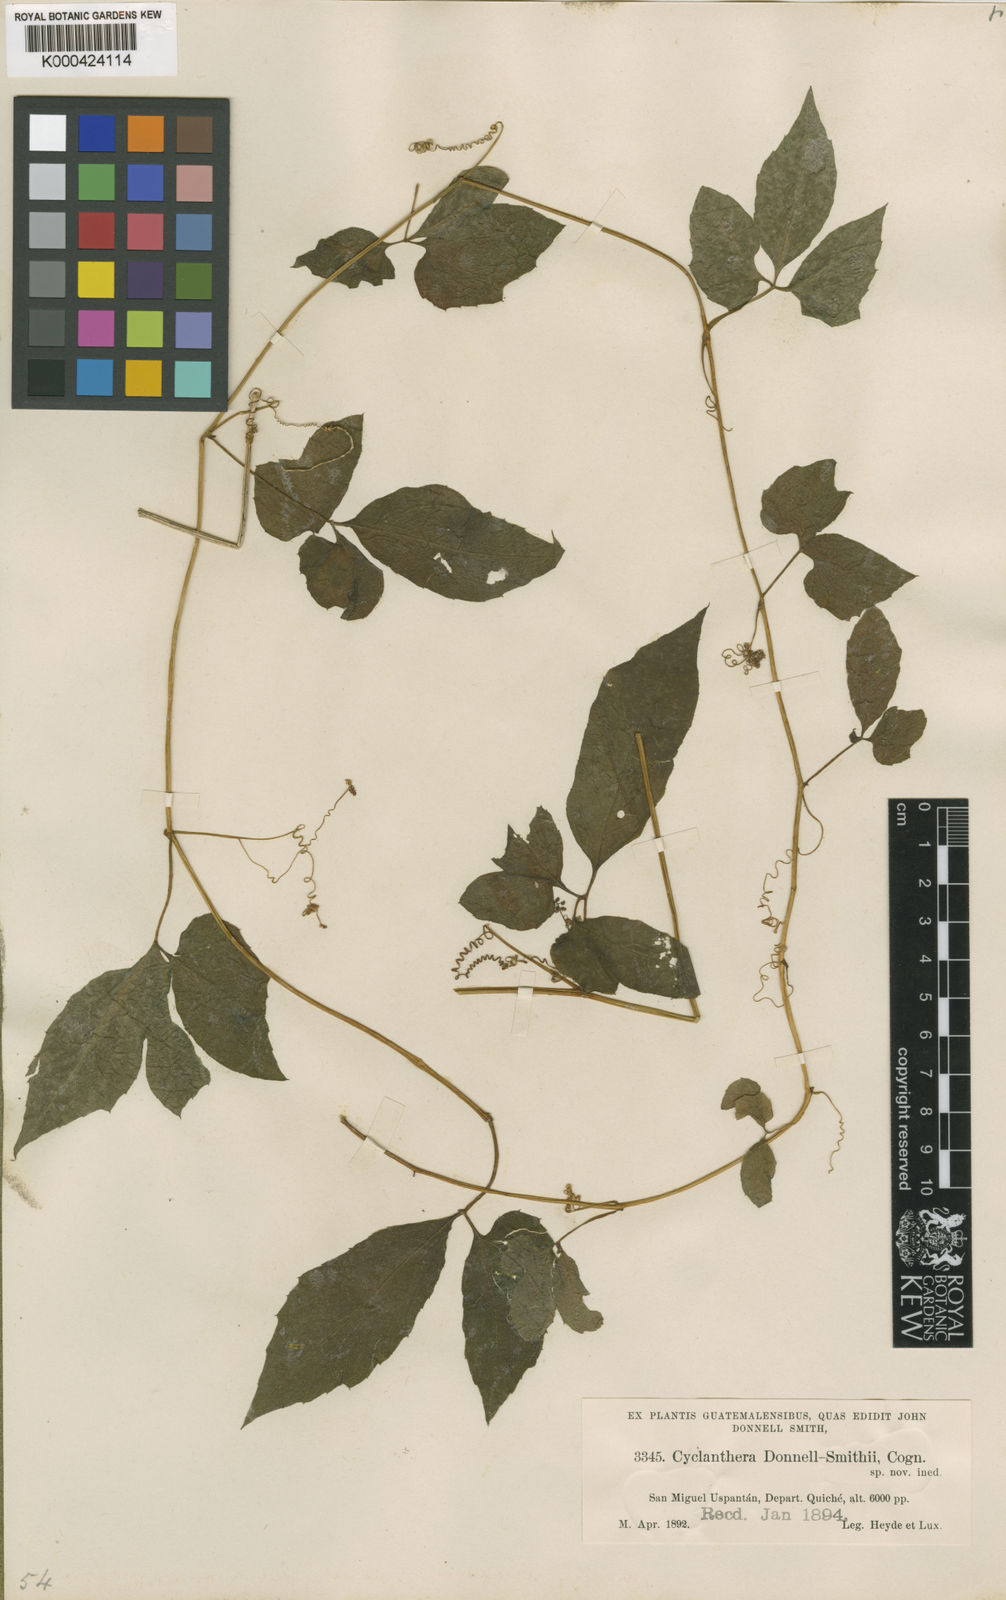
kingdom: Plantae
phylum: Tracheophyta
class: Magnoliopsida
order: Cucurbitales
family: Cucurbitaceae
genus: Cyclanthera
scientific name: Cyclanthera integrifoliola
